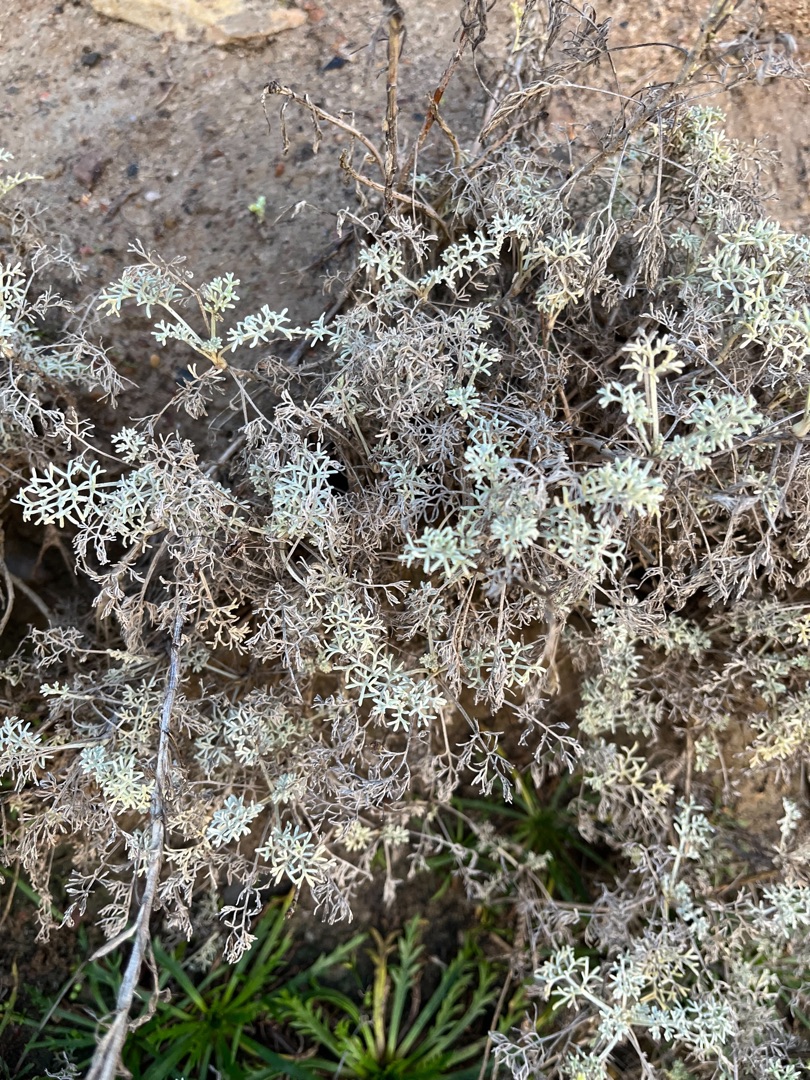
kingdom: Plantae
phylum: Tracheophyta
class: Magnoliopsida
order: Asterales
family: Asteraceae
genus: Artemisia
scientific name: Artemisia maritima
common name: Strandmalurt
